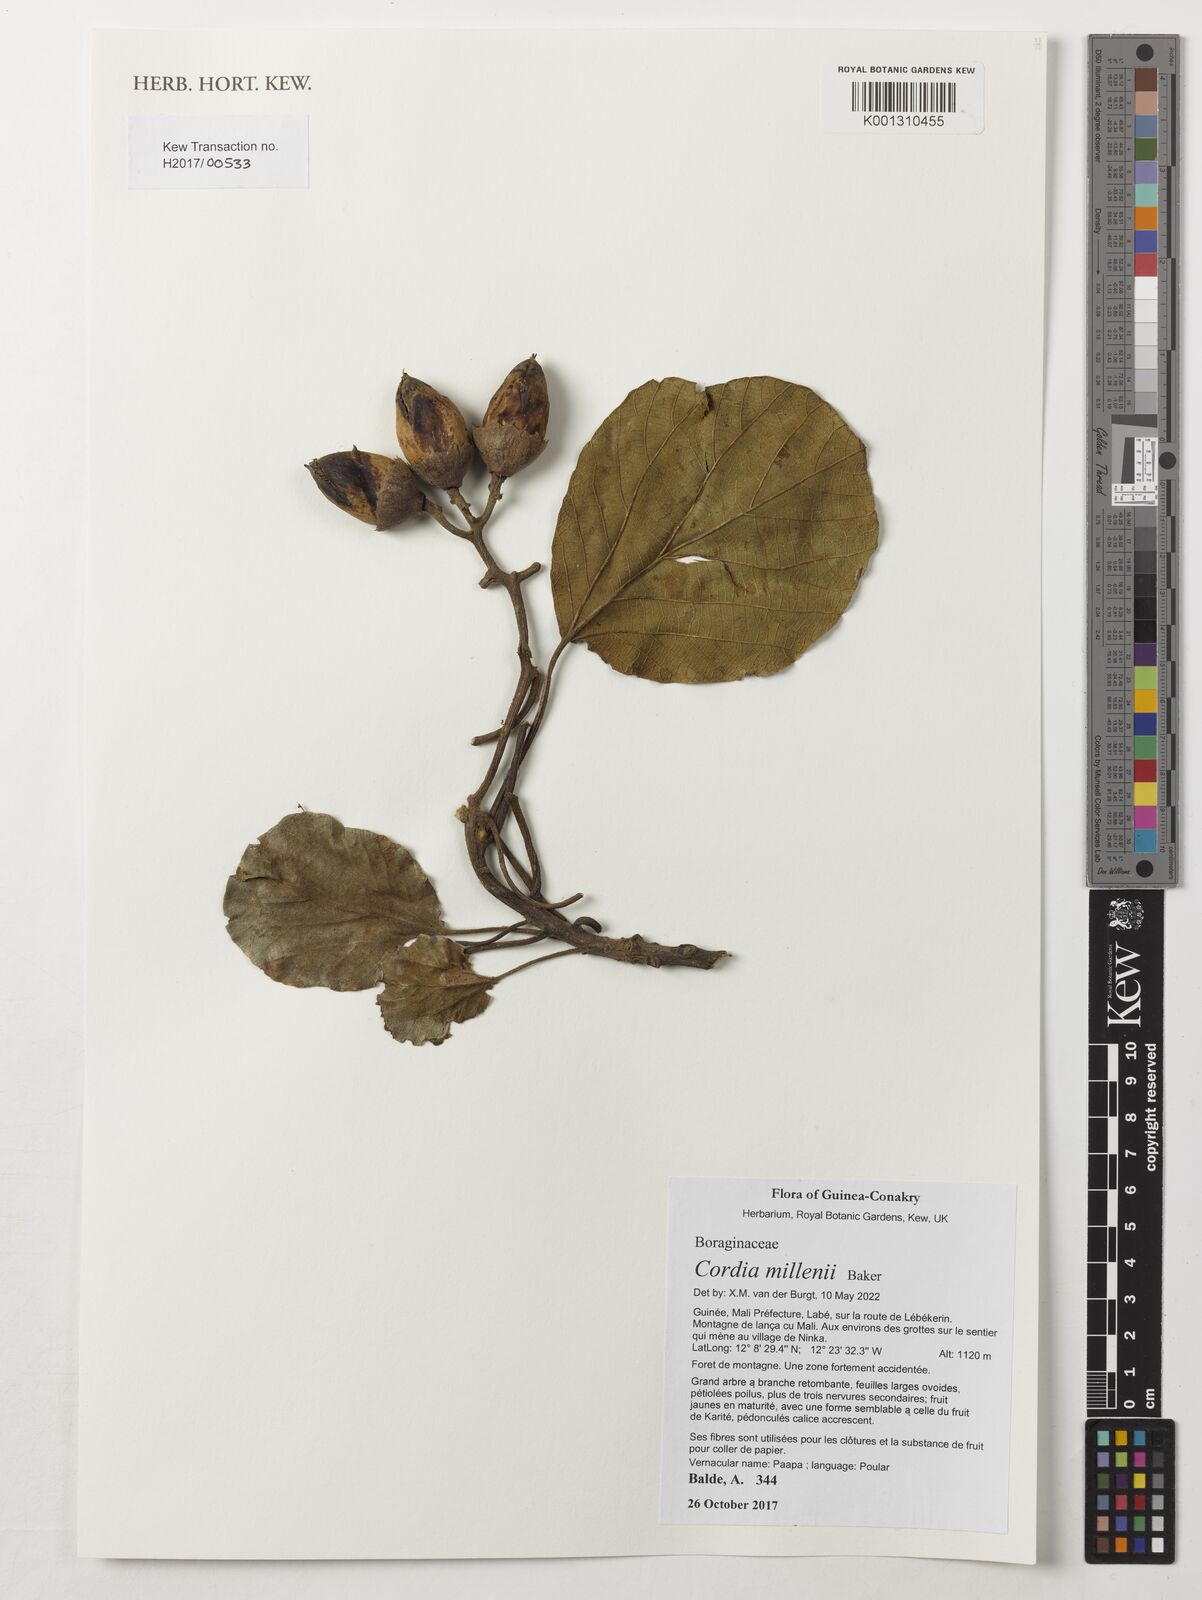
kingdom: Plantae
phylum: Tracheophyta
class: Magnoliopsida
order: Boraginales
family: Cordiaceae
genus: Cordia
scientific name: Cordia millenii
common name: Drum tree
